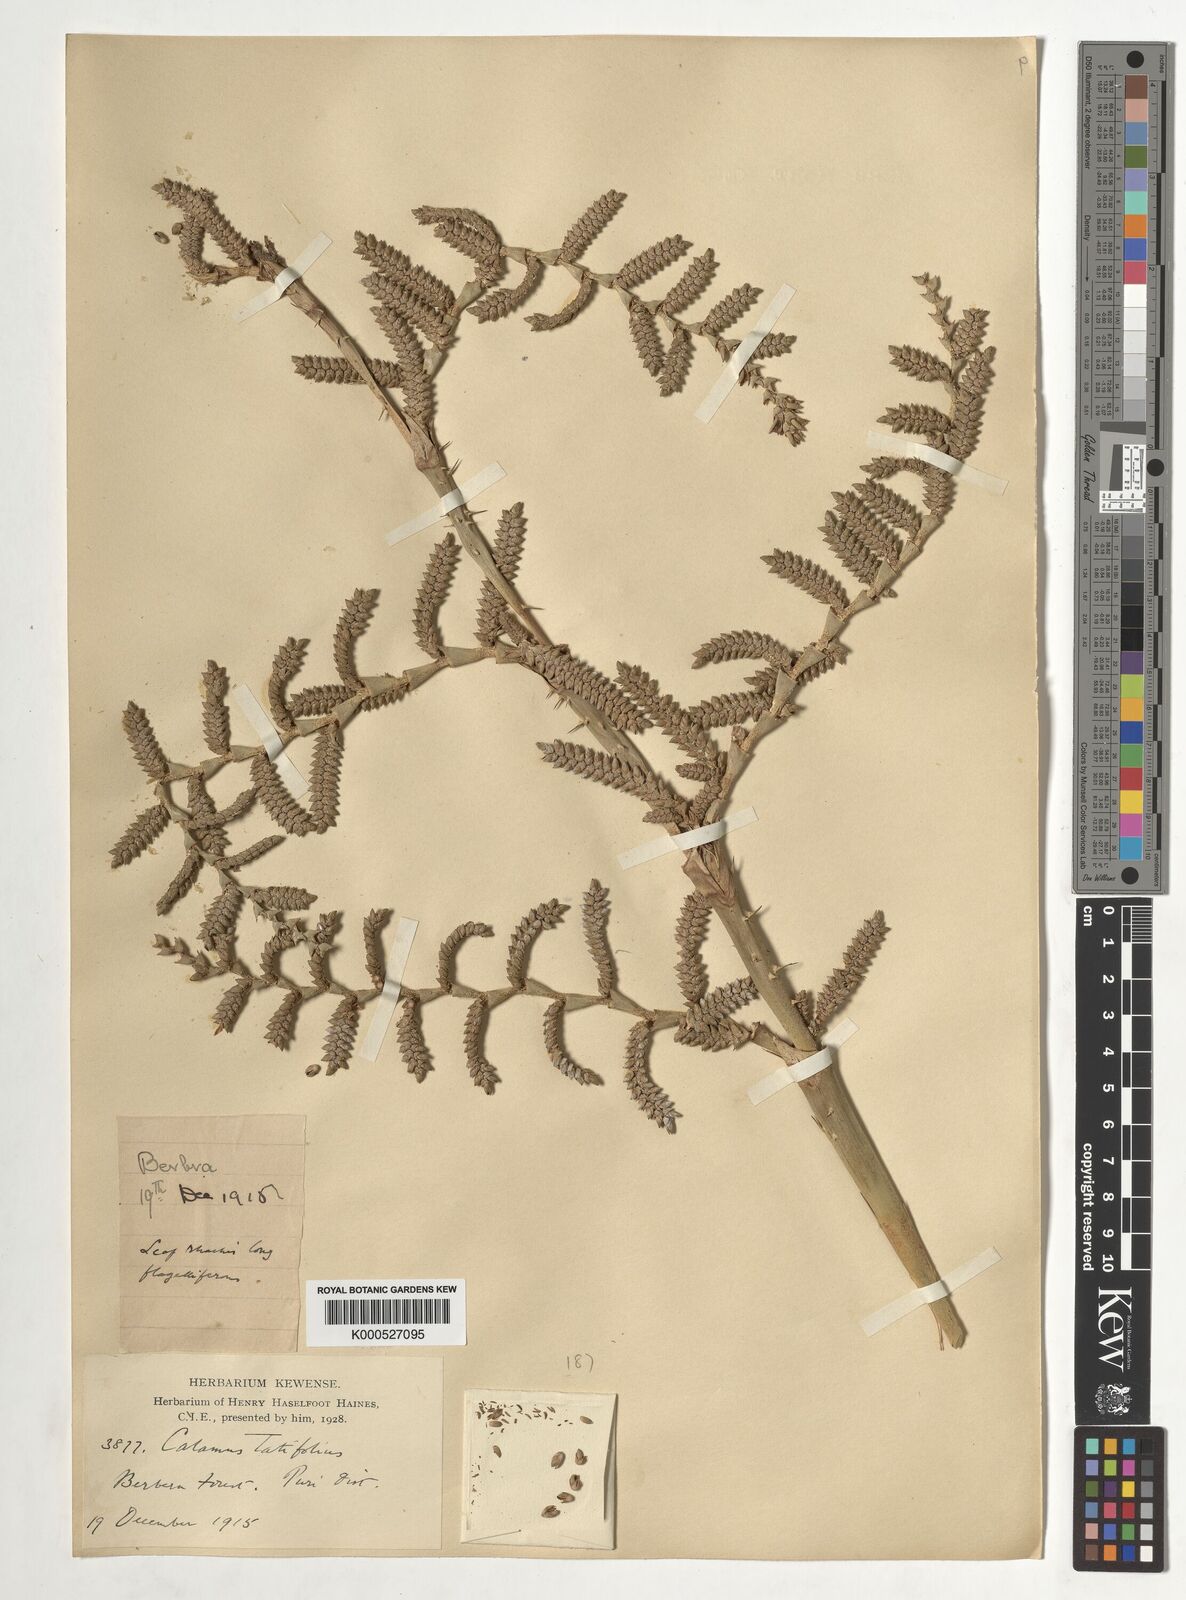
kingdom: Plantae
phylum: Tracheophyta
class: Liliopsida
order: Arecales
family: Arecaceae
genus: Calamus
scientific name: Calamus latifolius
